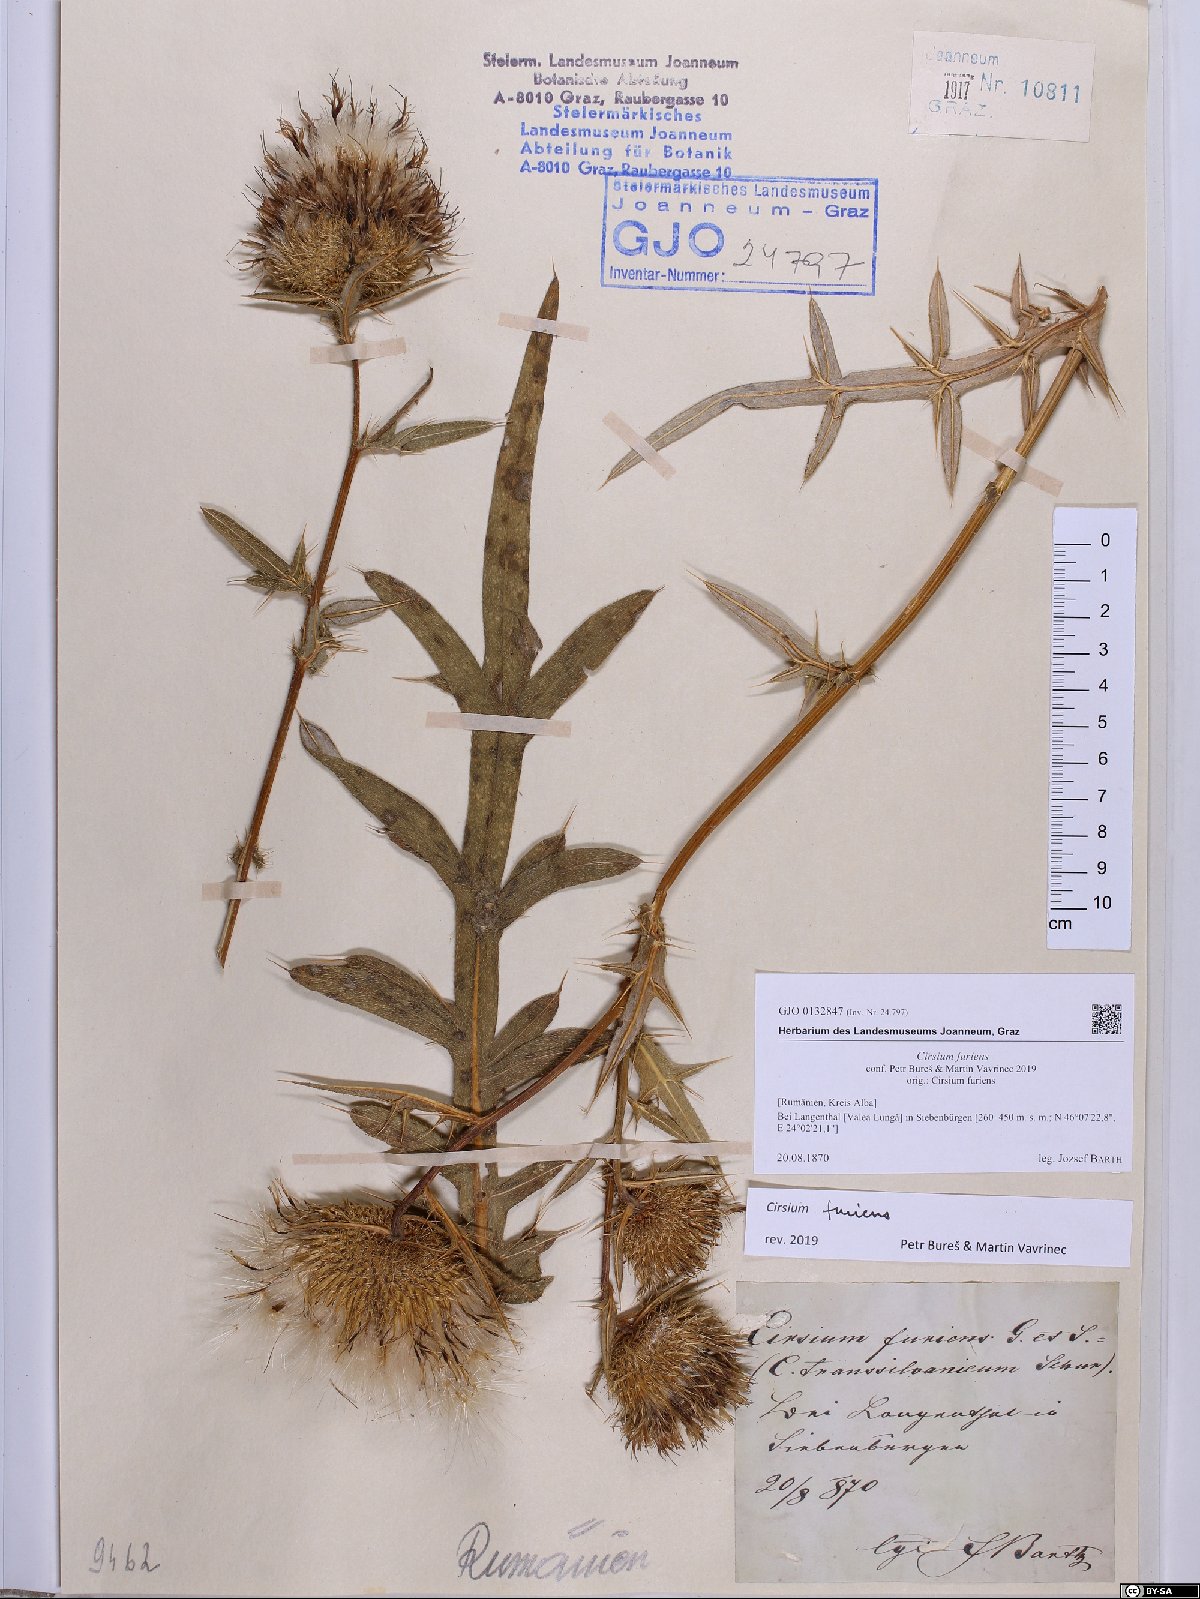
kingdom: Plantae
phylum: Tracheophyta
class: Magnoliopsida
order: Asterales
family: Asteraceae
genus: Lophiolepis
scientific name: Lophiolepis furiens
